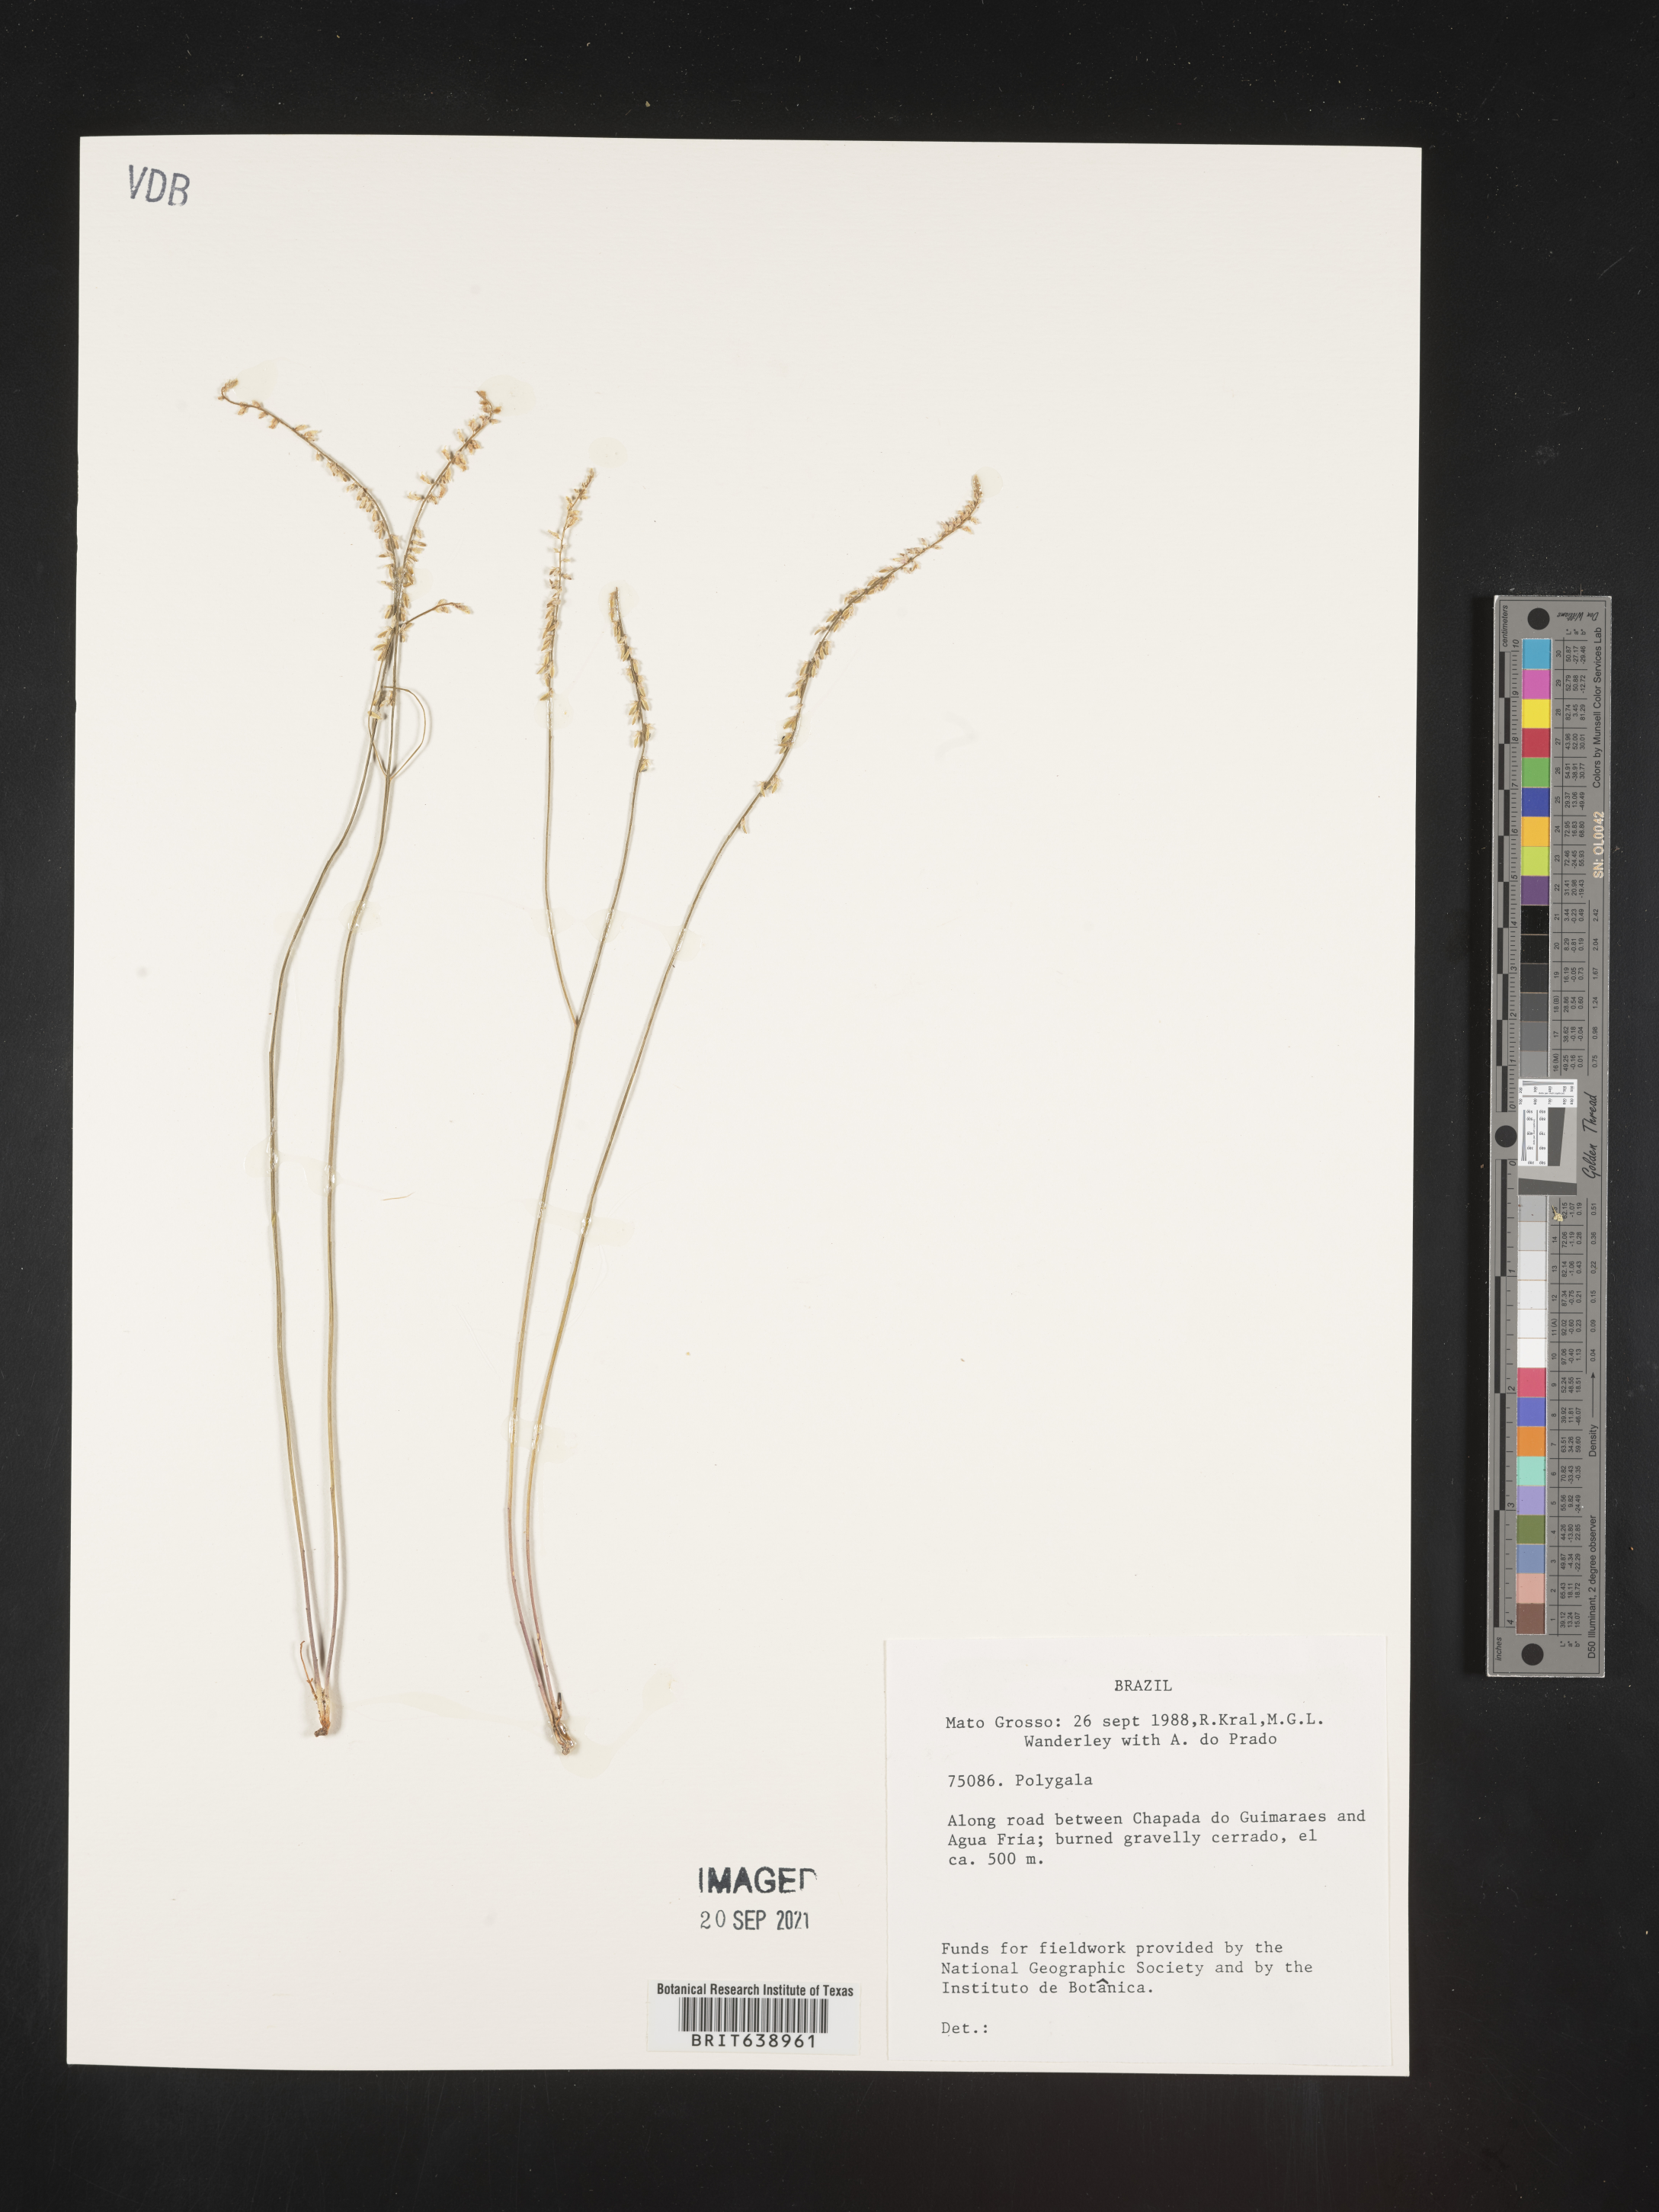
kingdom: Plantae
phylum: Tracheophyta
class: Magnoliopsida
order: Fabales
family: Polygalaceae
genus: Polygala
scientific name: Polygala
